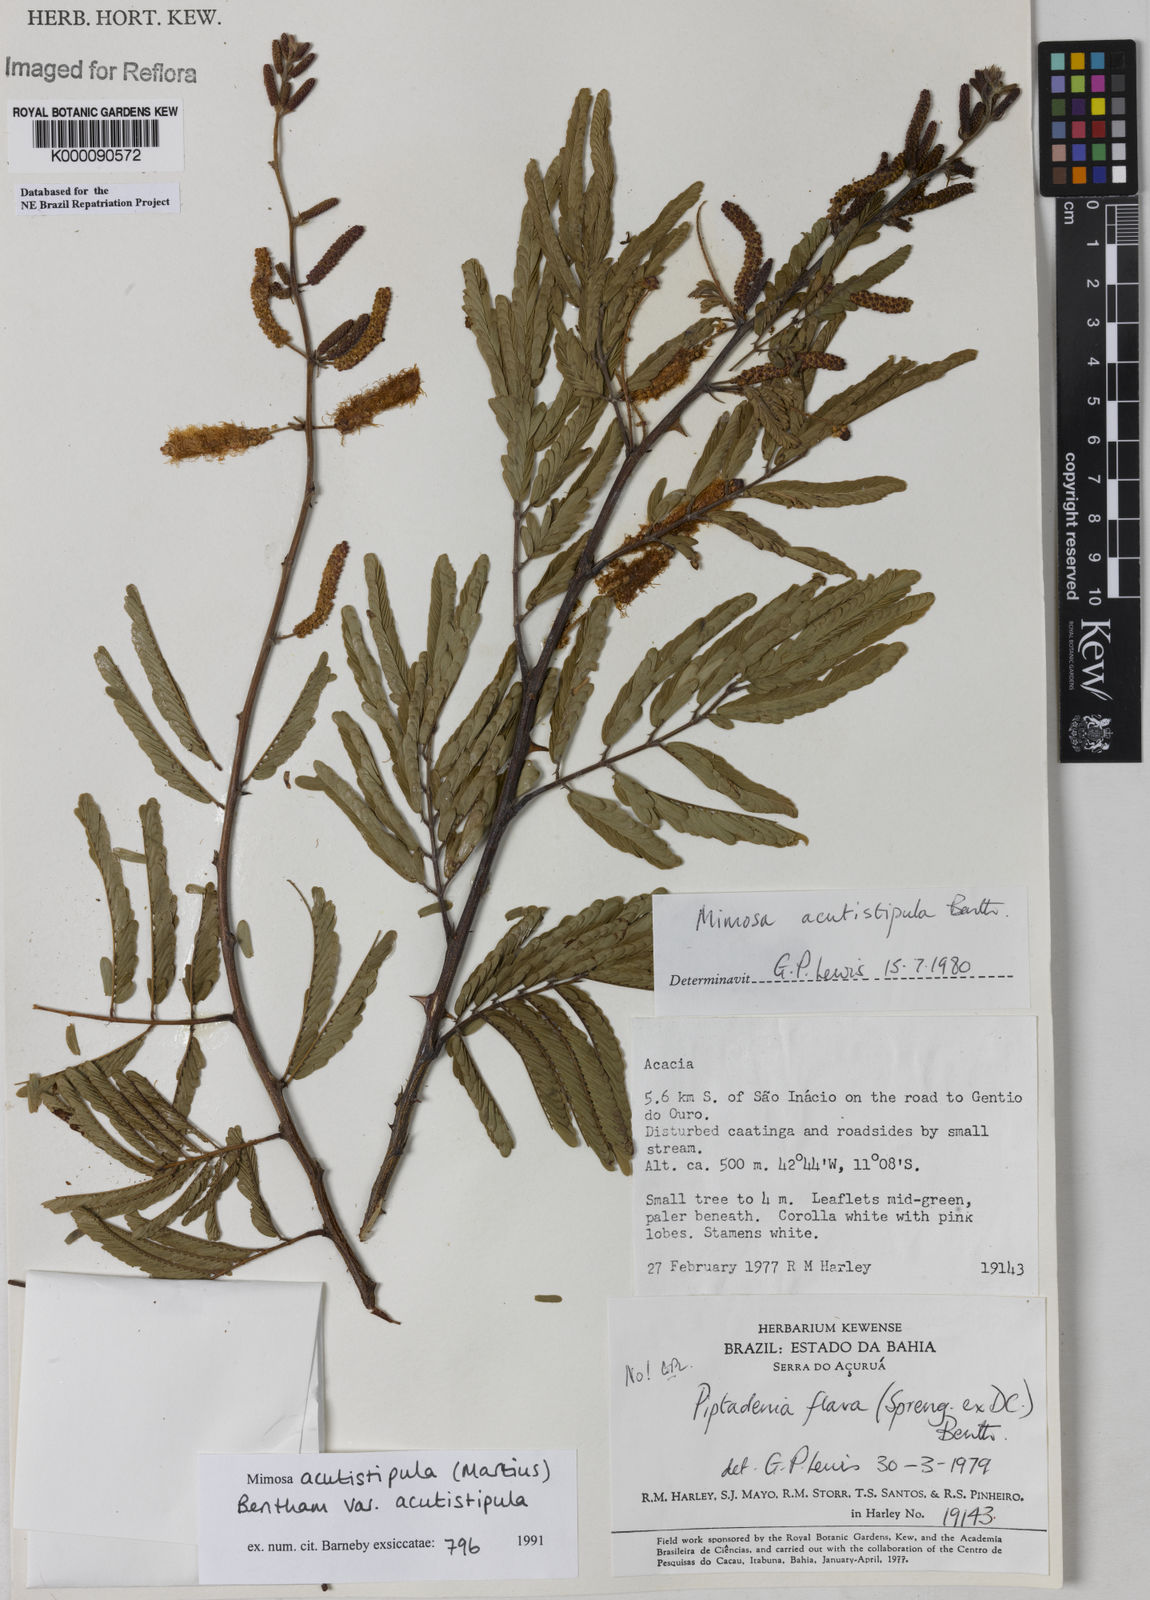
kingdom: Plantae
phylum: Tracheophyta
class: Magnoliopsida
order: Fabales
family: Fabaceae
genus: Mimosa
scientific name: Mimosa acutistipula
